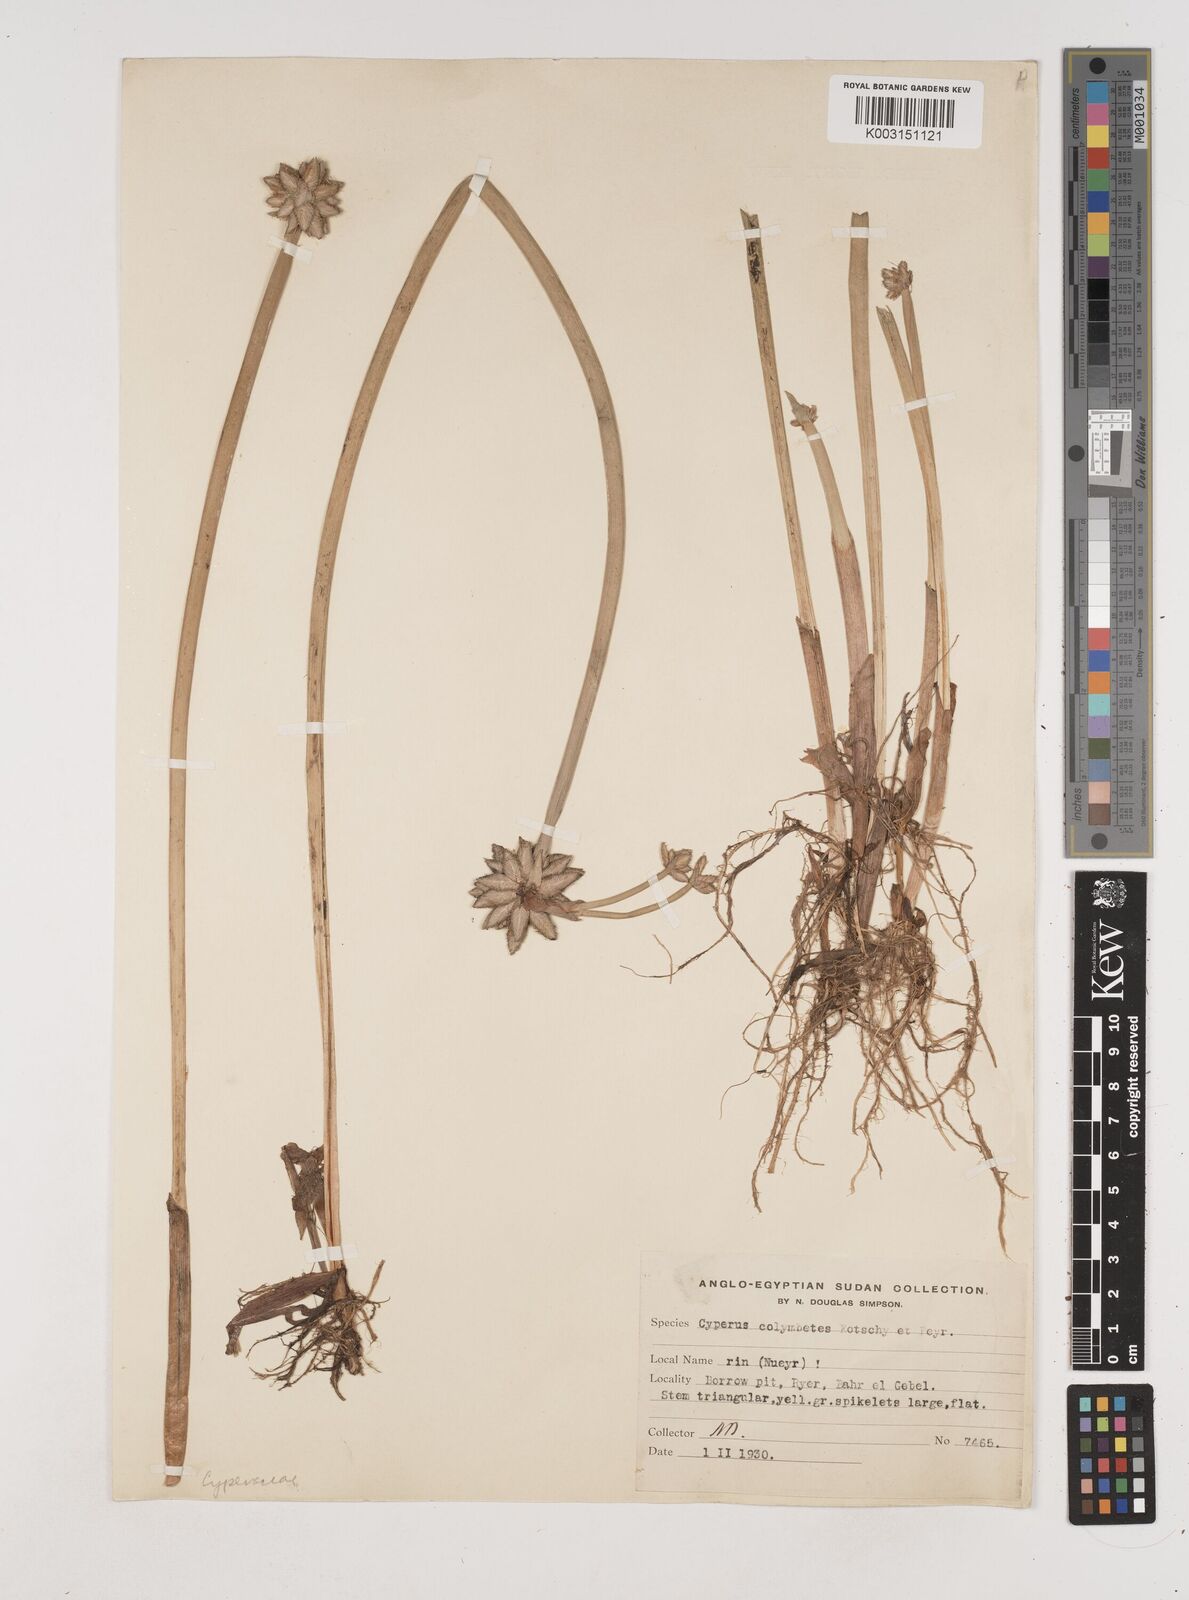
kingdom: Plantae
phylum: Tracheophyta
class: Liliopsida
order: Poales
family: Cyperaceae
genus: Cyperus
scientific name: Cyperus colymbetes
